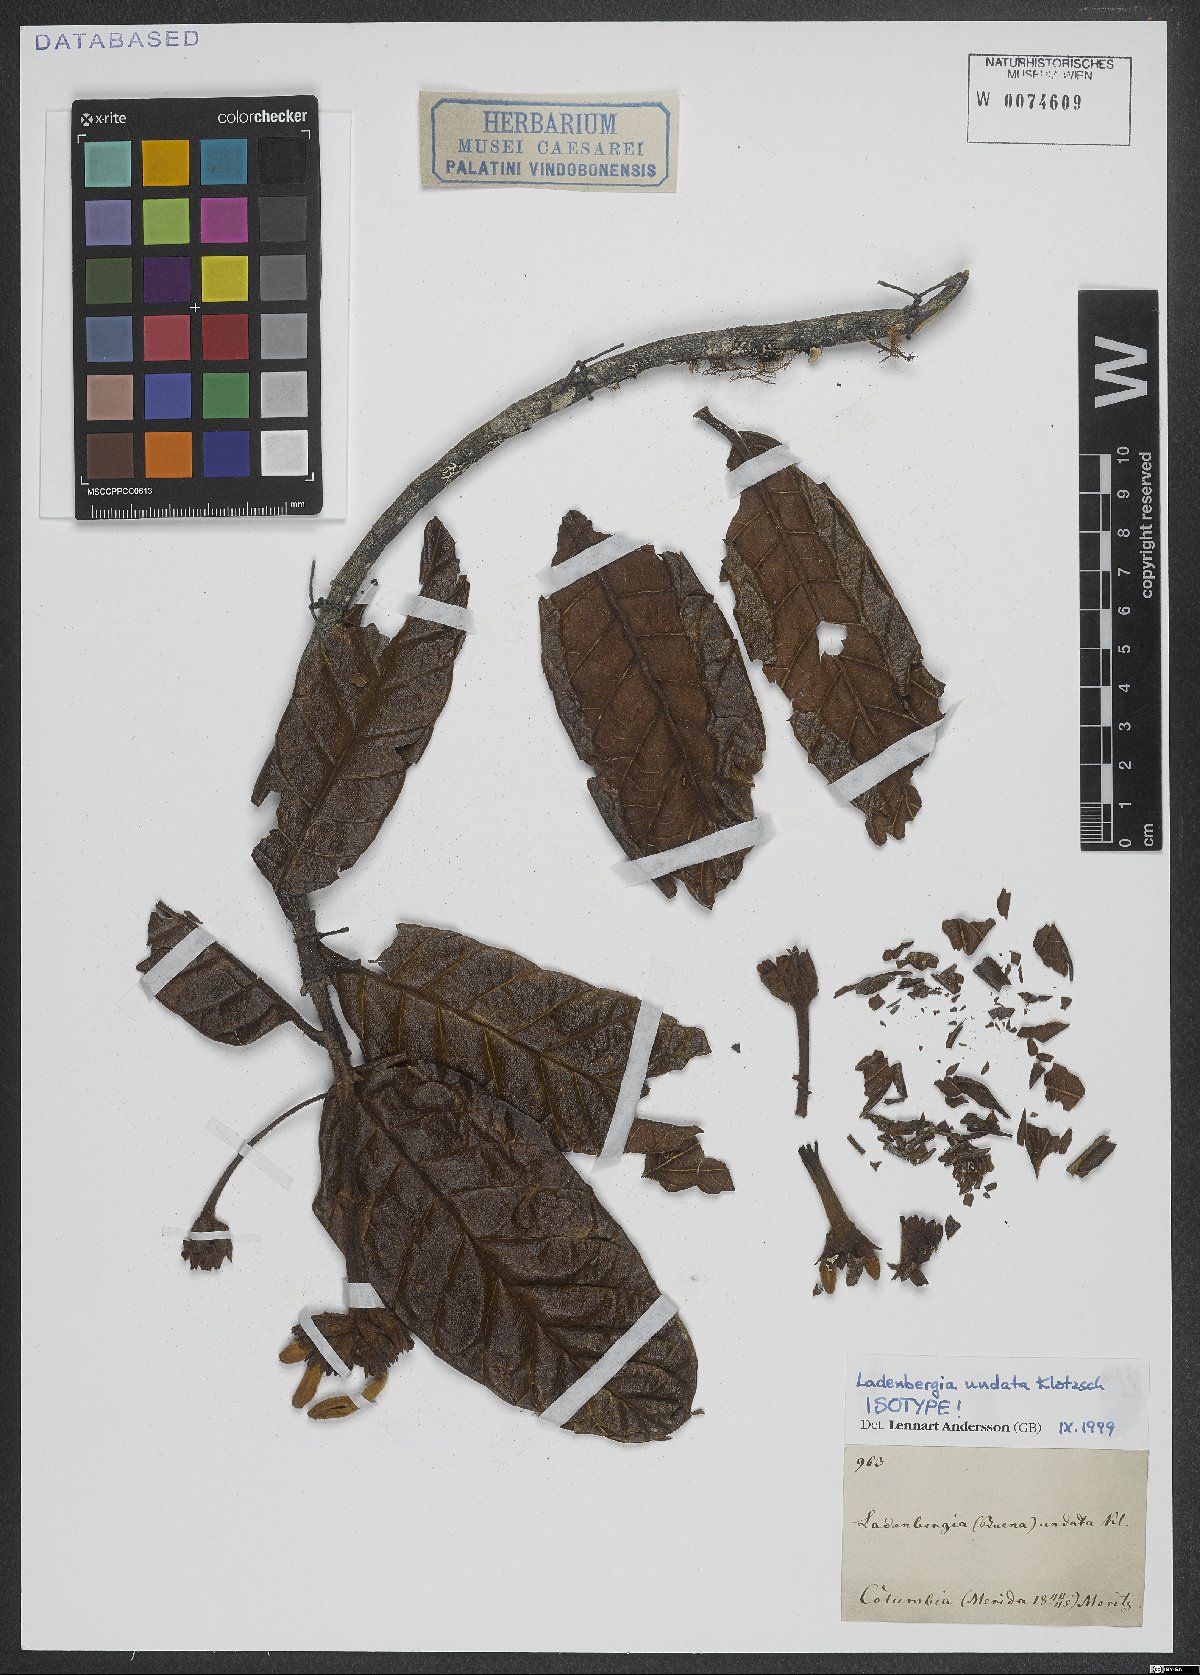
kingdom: Plantae
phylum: Tracheophyta
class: Magnoliopsida
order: Gentianales
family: Rubiaceae
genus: Ladenbergia
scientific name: Ladenbergia undata
